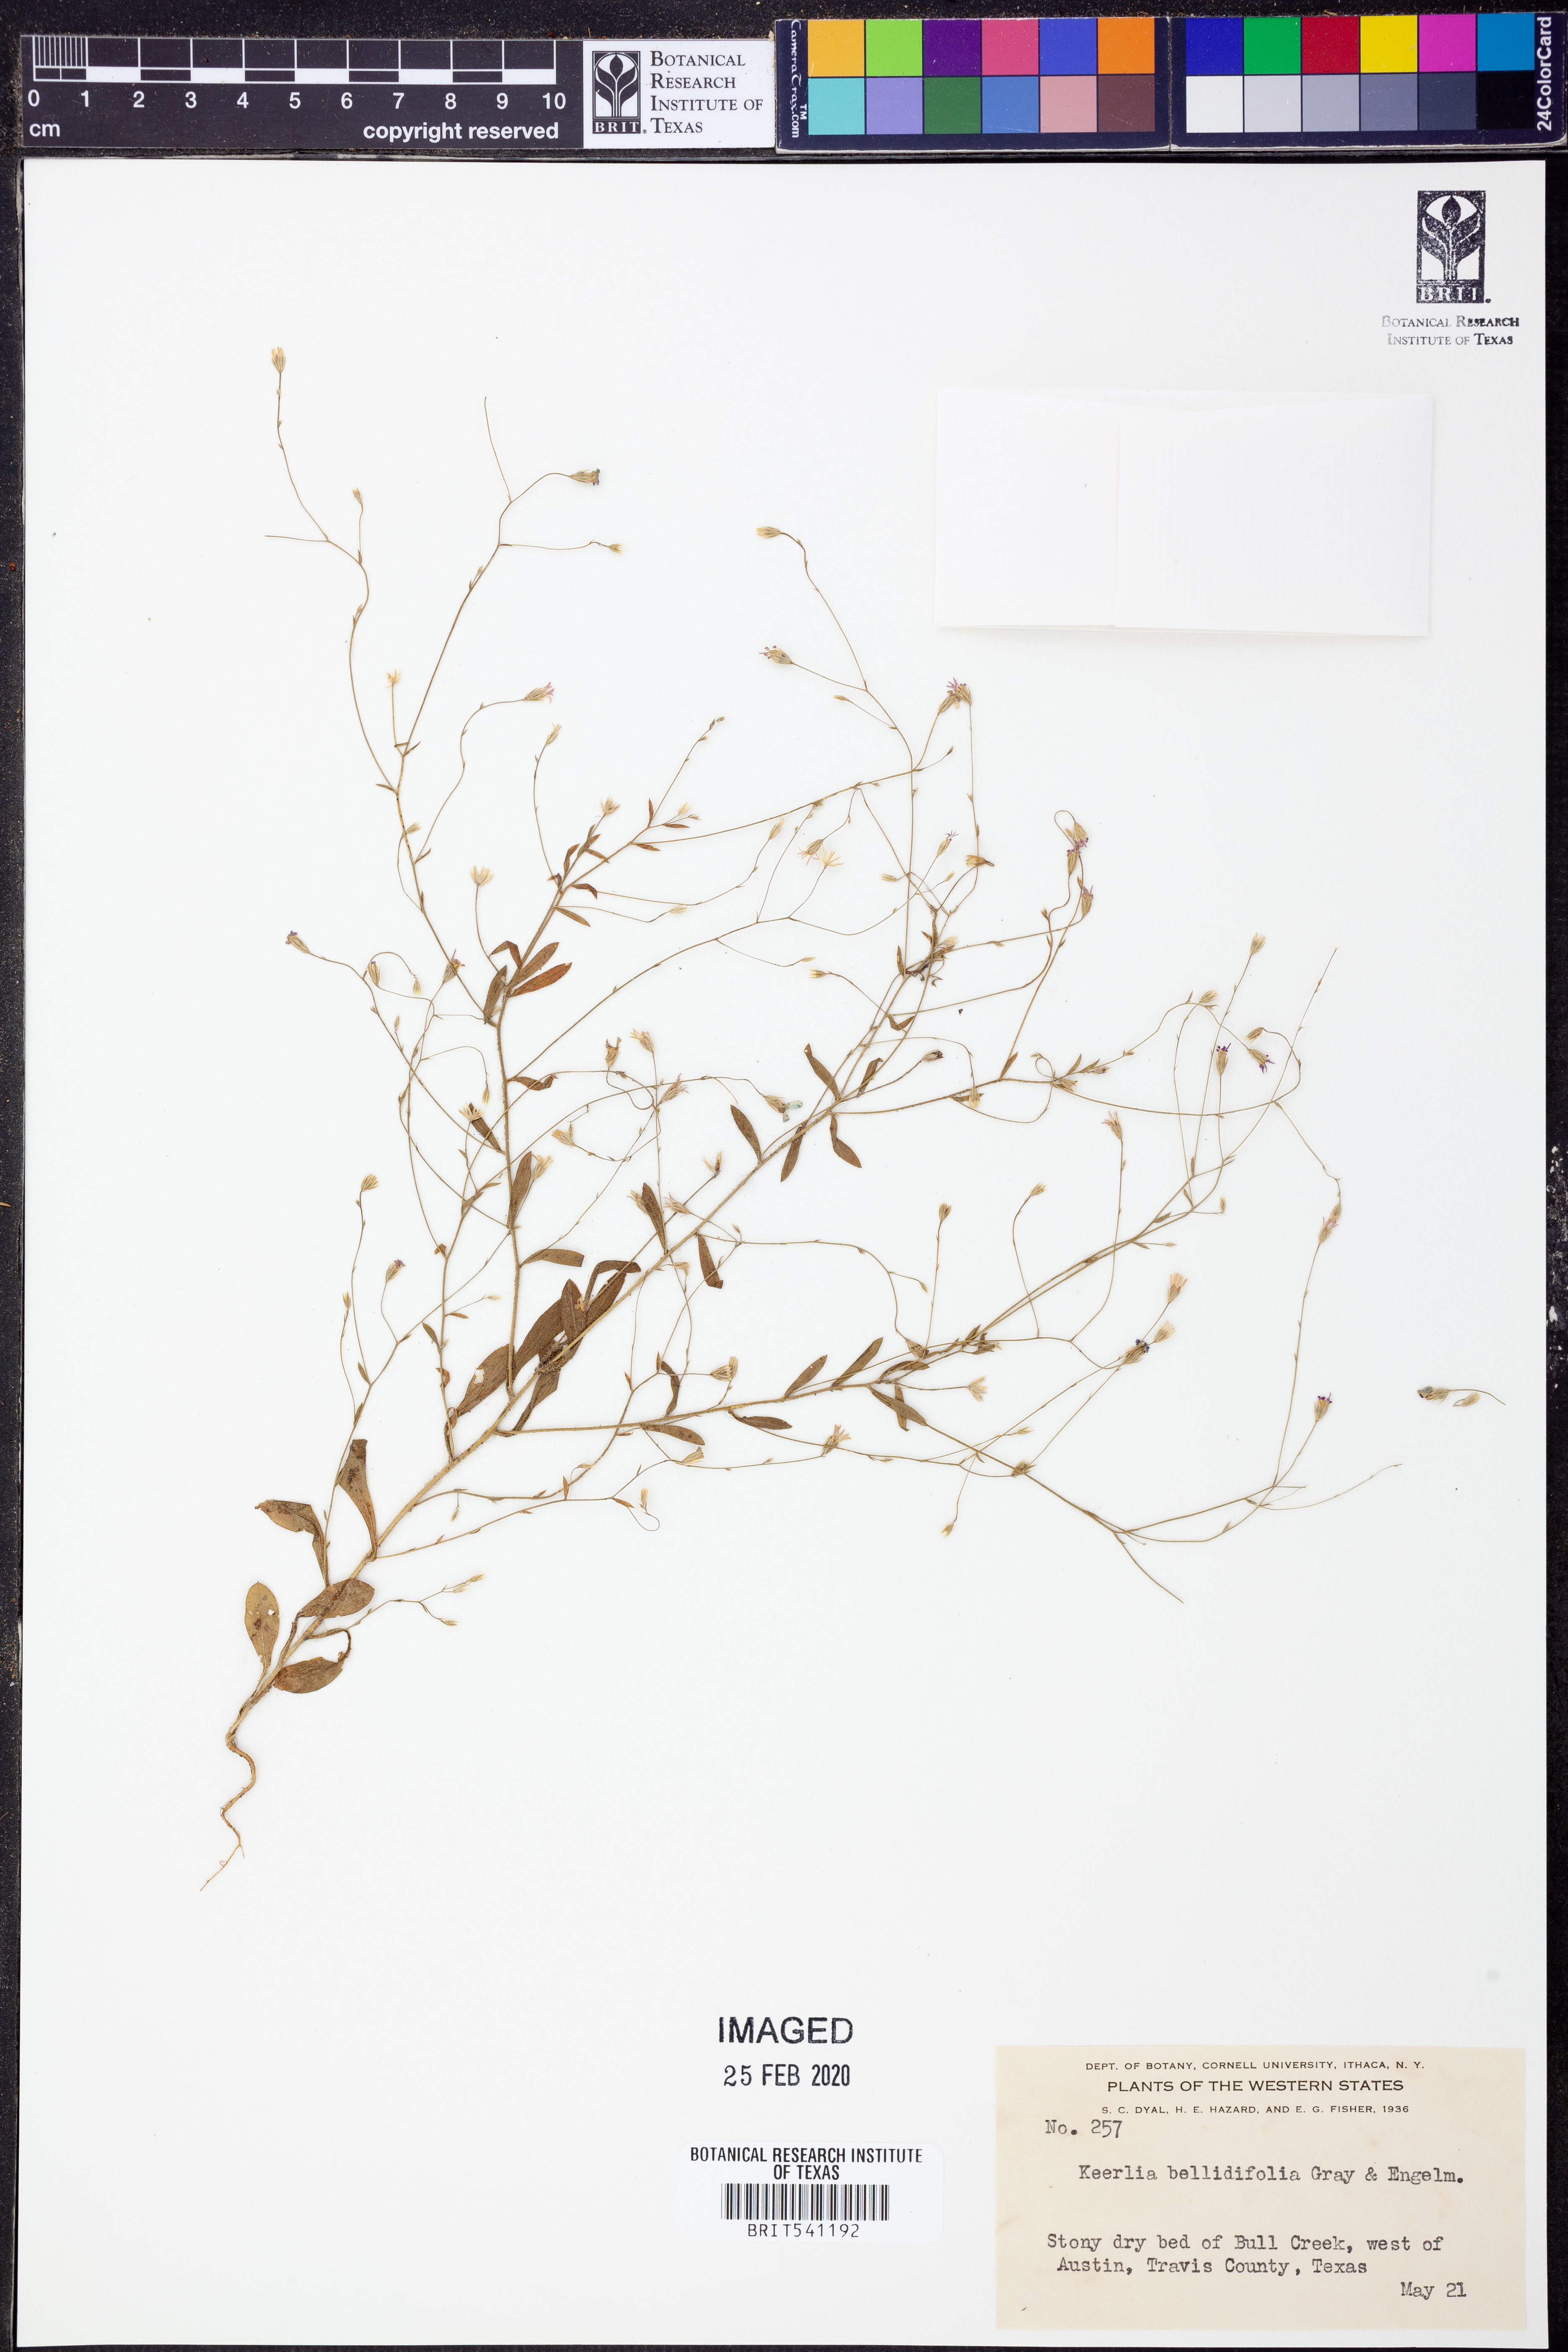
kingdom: Plantae
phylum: Tracheophyta
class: Magnoliopsida
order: Asterales
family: Asteraceae
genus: Chaetopappa
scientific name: Chaetopappa bellidifolia
